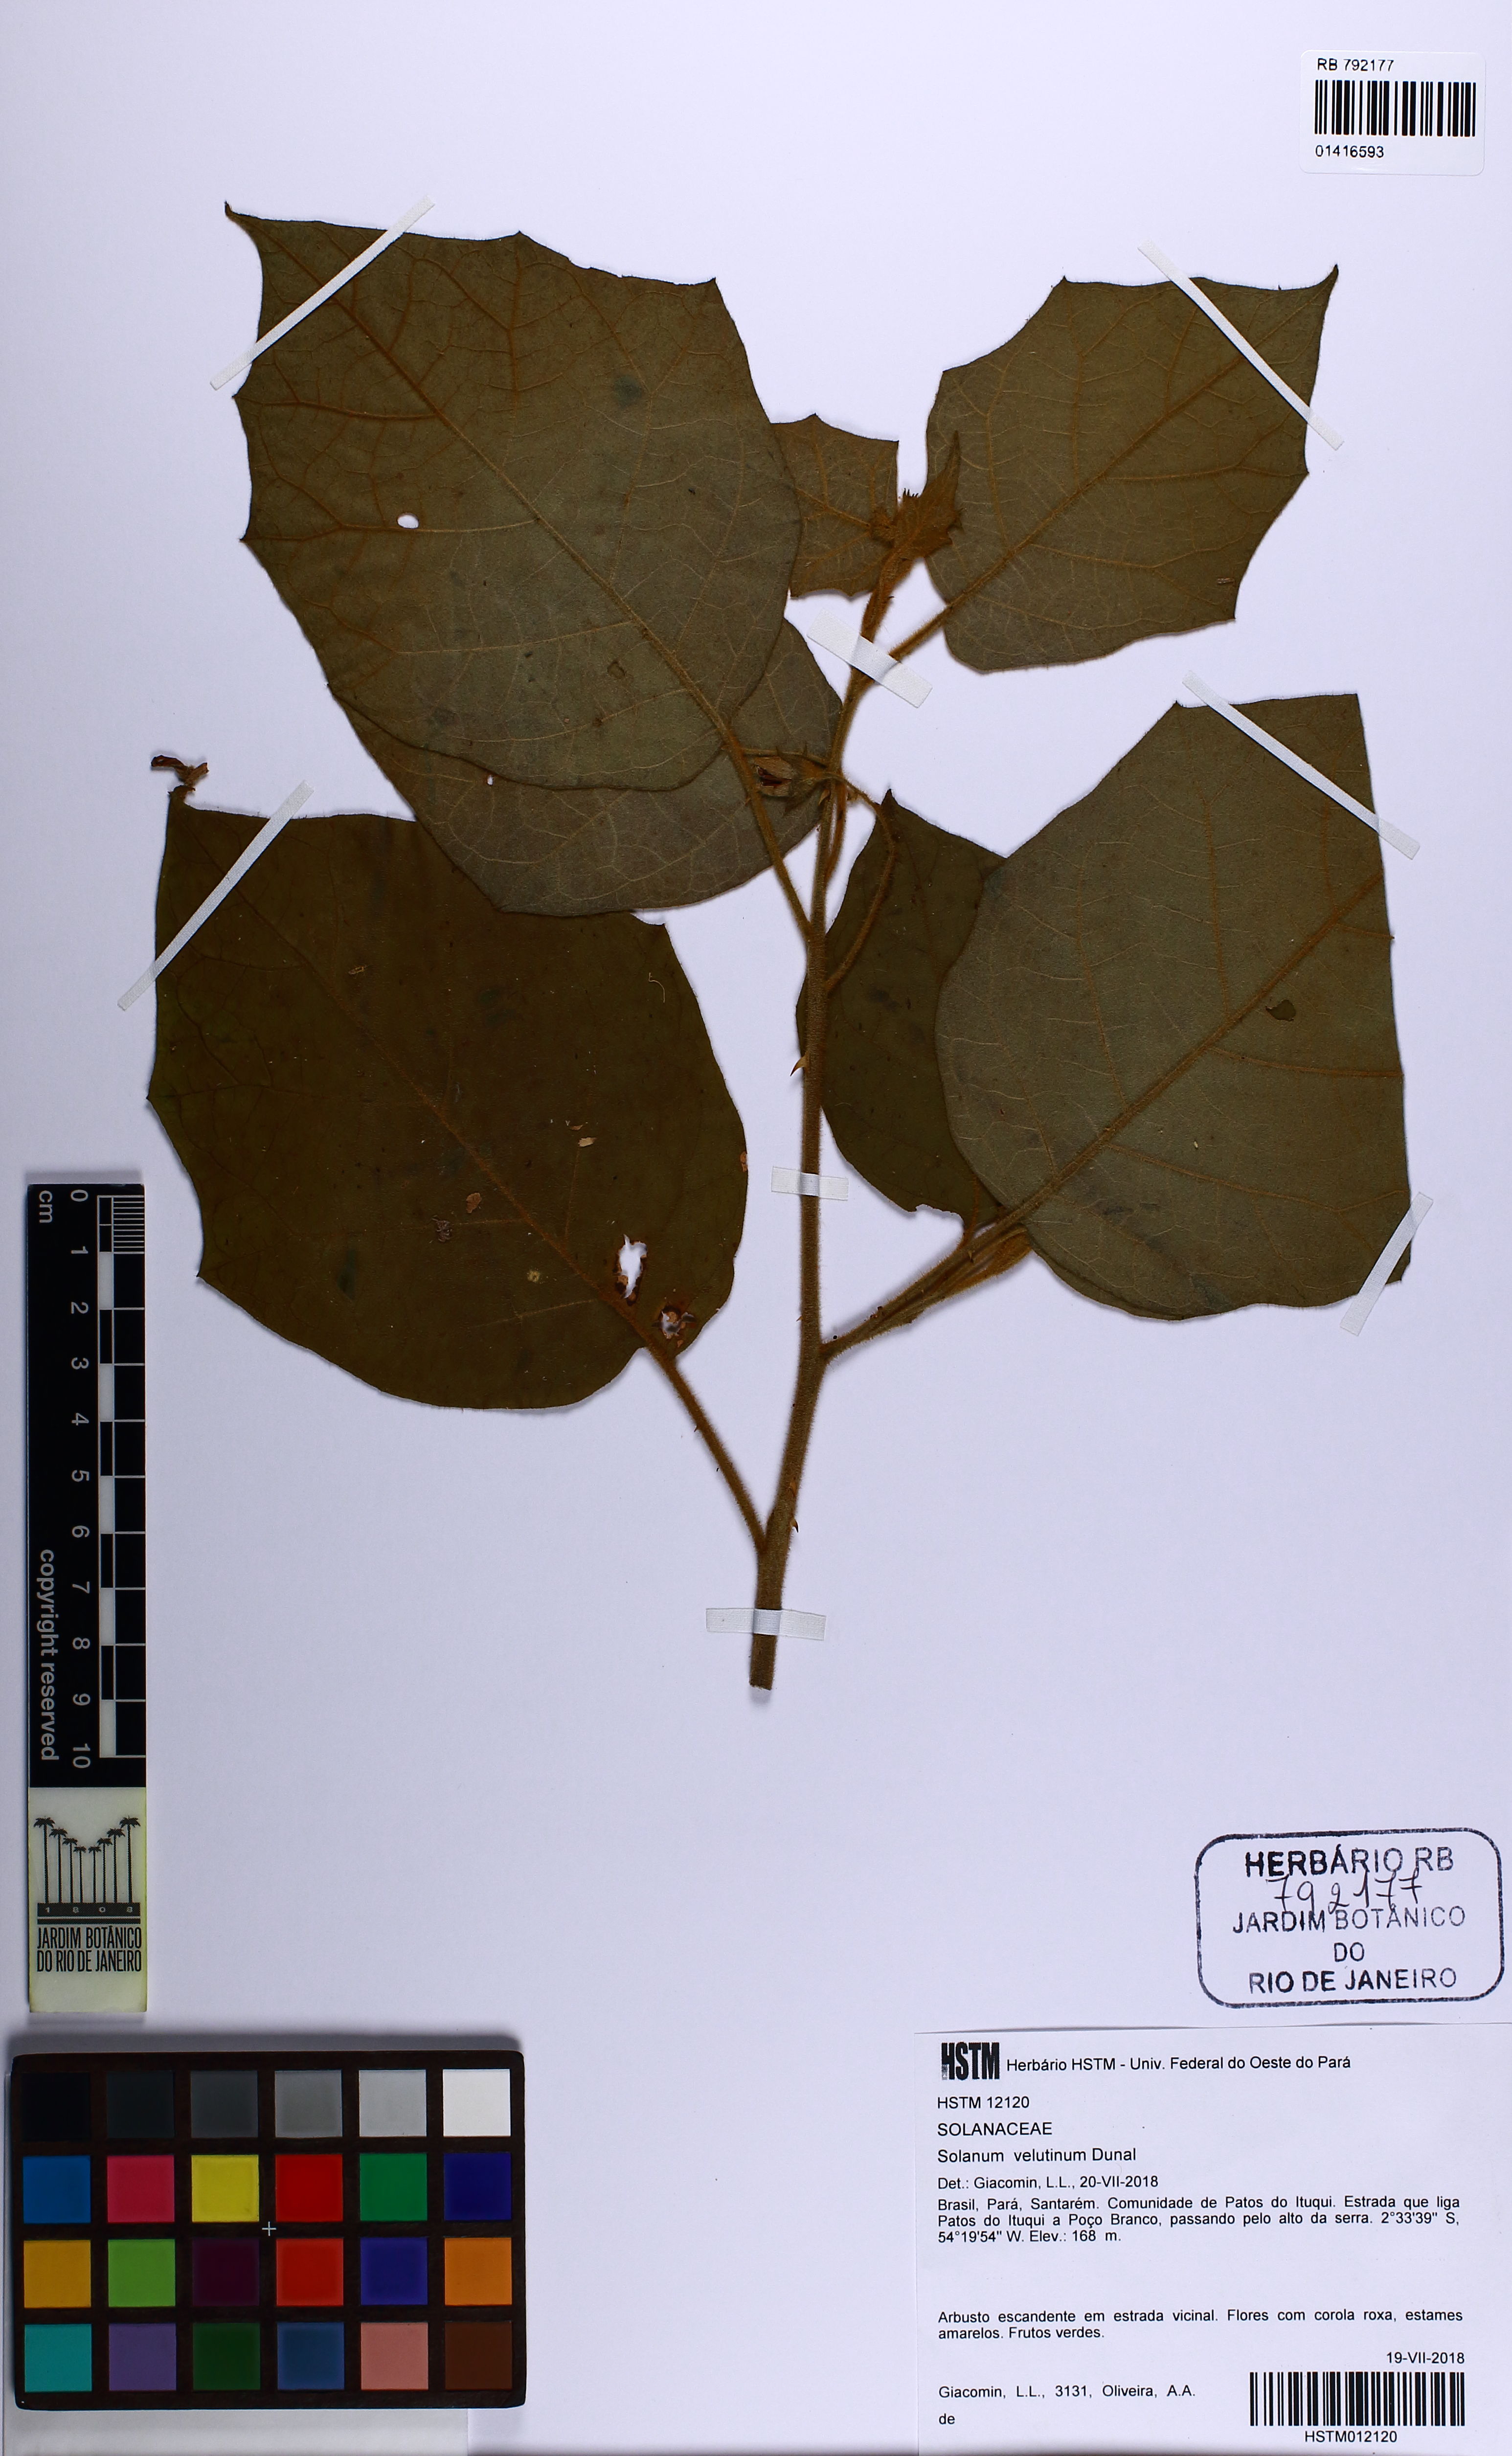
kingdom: Plantae
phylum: Tracheophyta
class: Magnoliopsida
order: Solanales
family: Solanaceae
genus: Solanum
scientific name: Solanum velutinum
